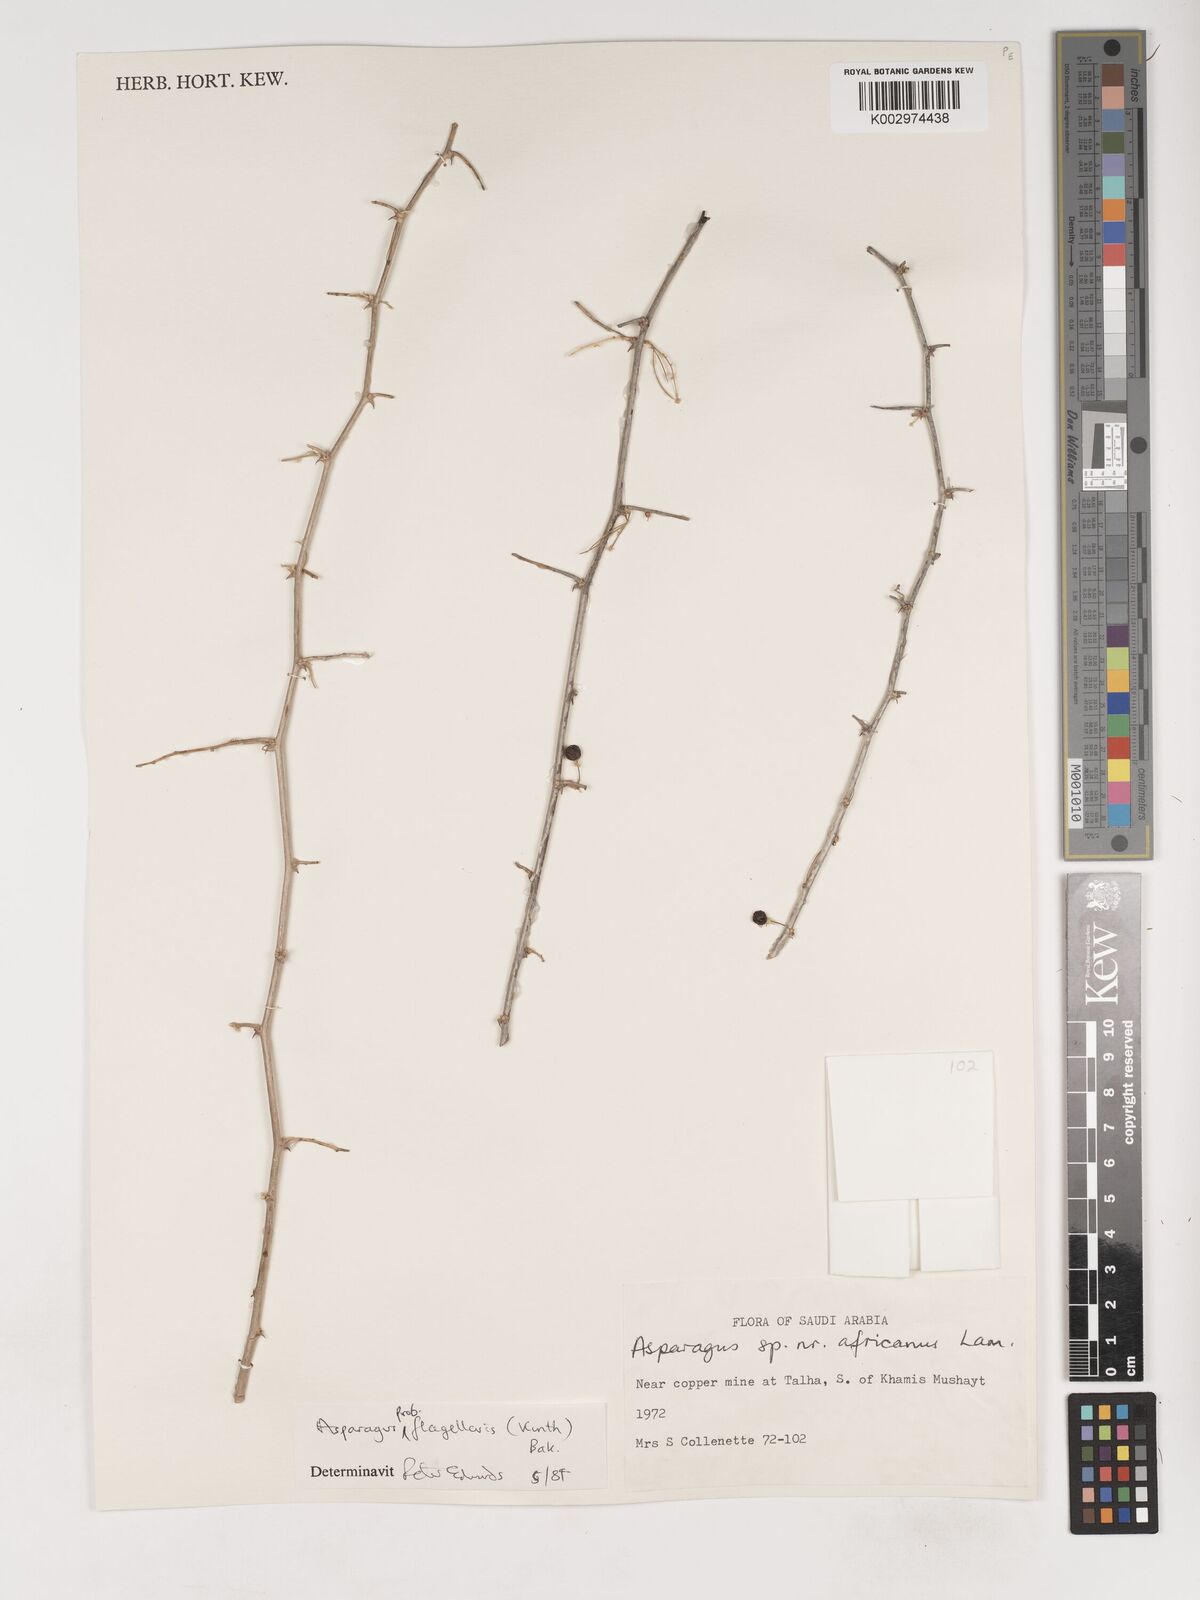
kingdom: Plantae
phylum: Tracheophyta
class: Liliopsida
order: Asparagales
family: Asparagaceae
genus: Asparagus
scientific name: Asparagus flagellaris
